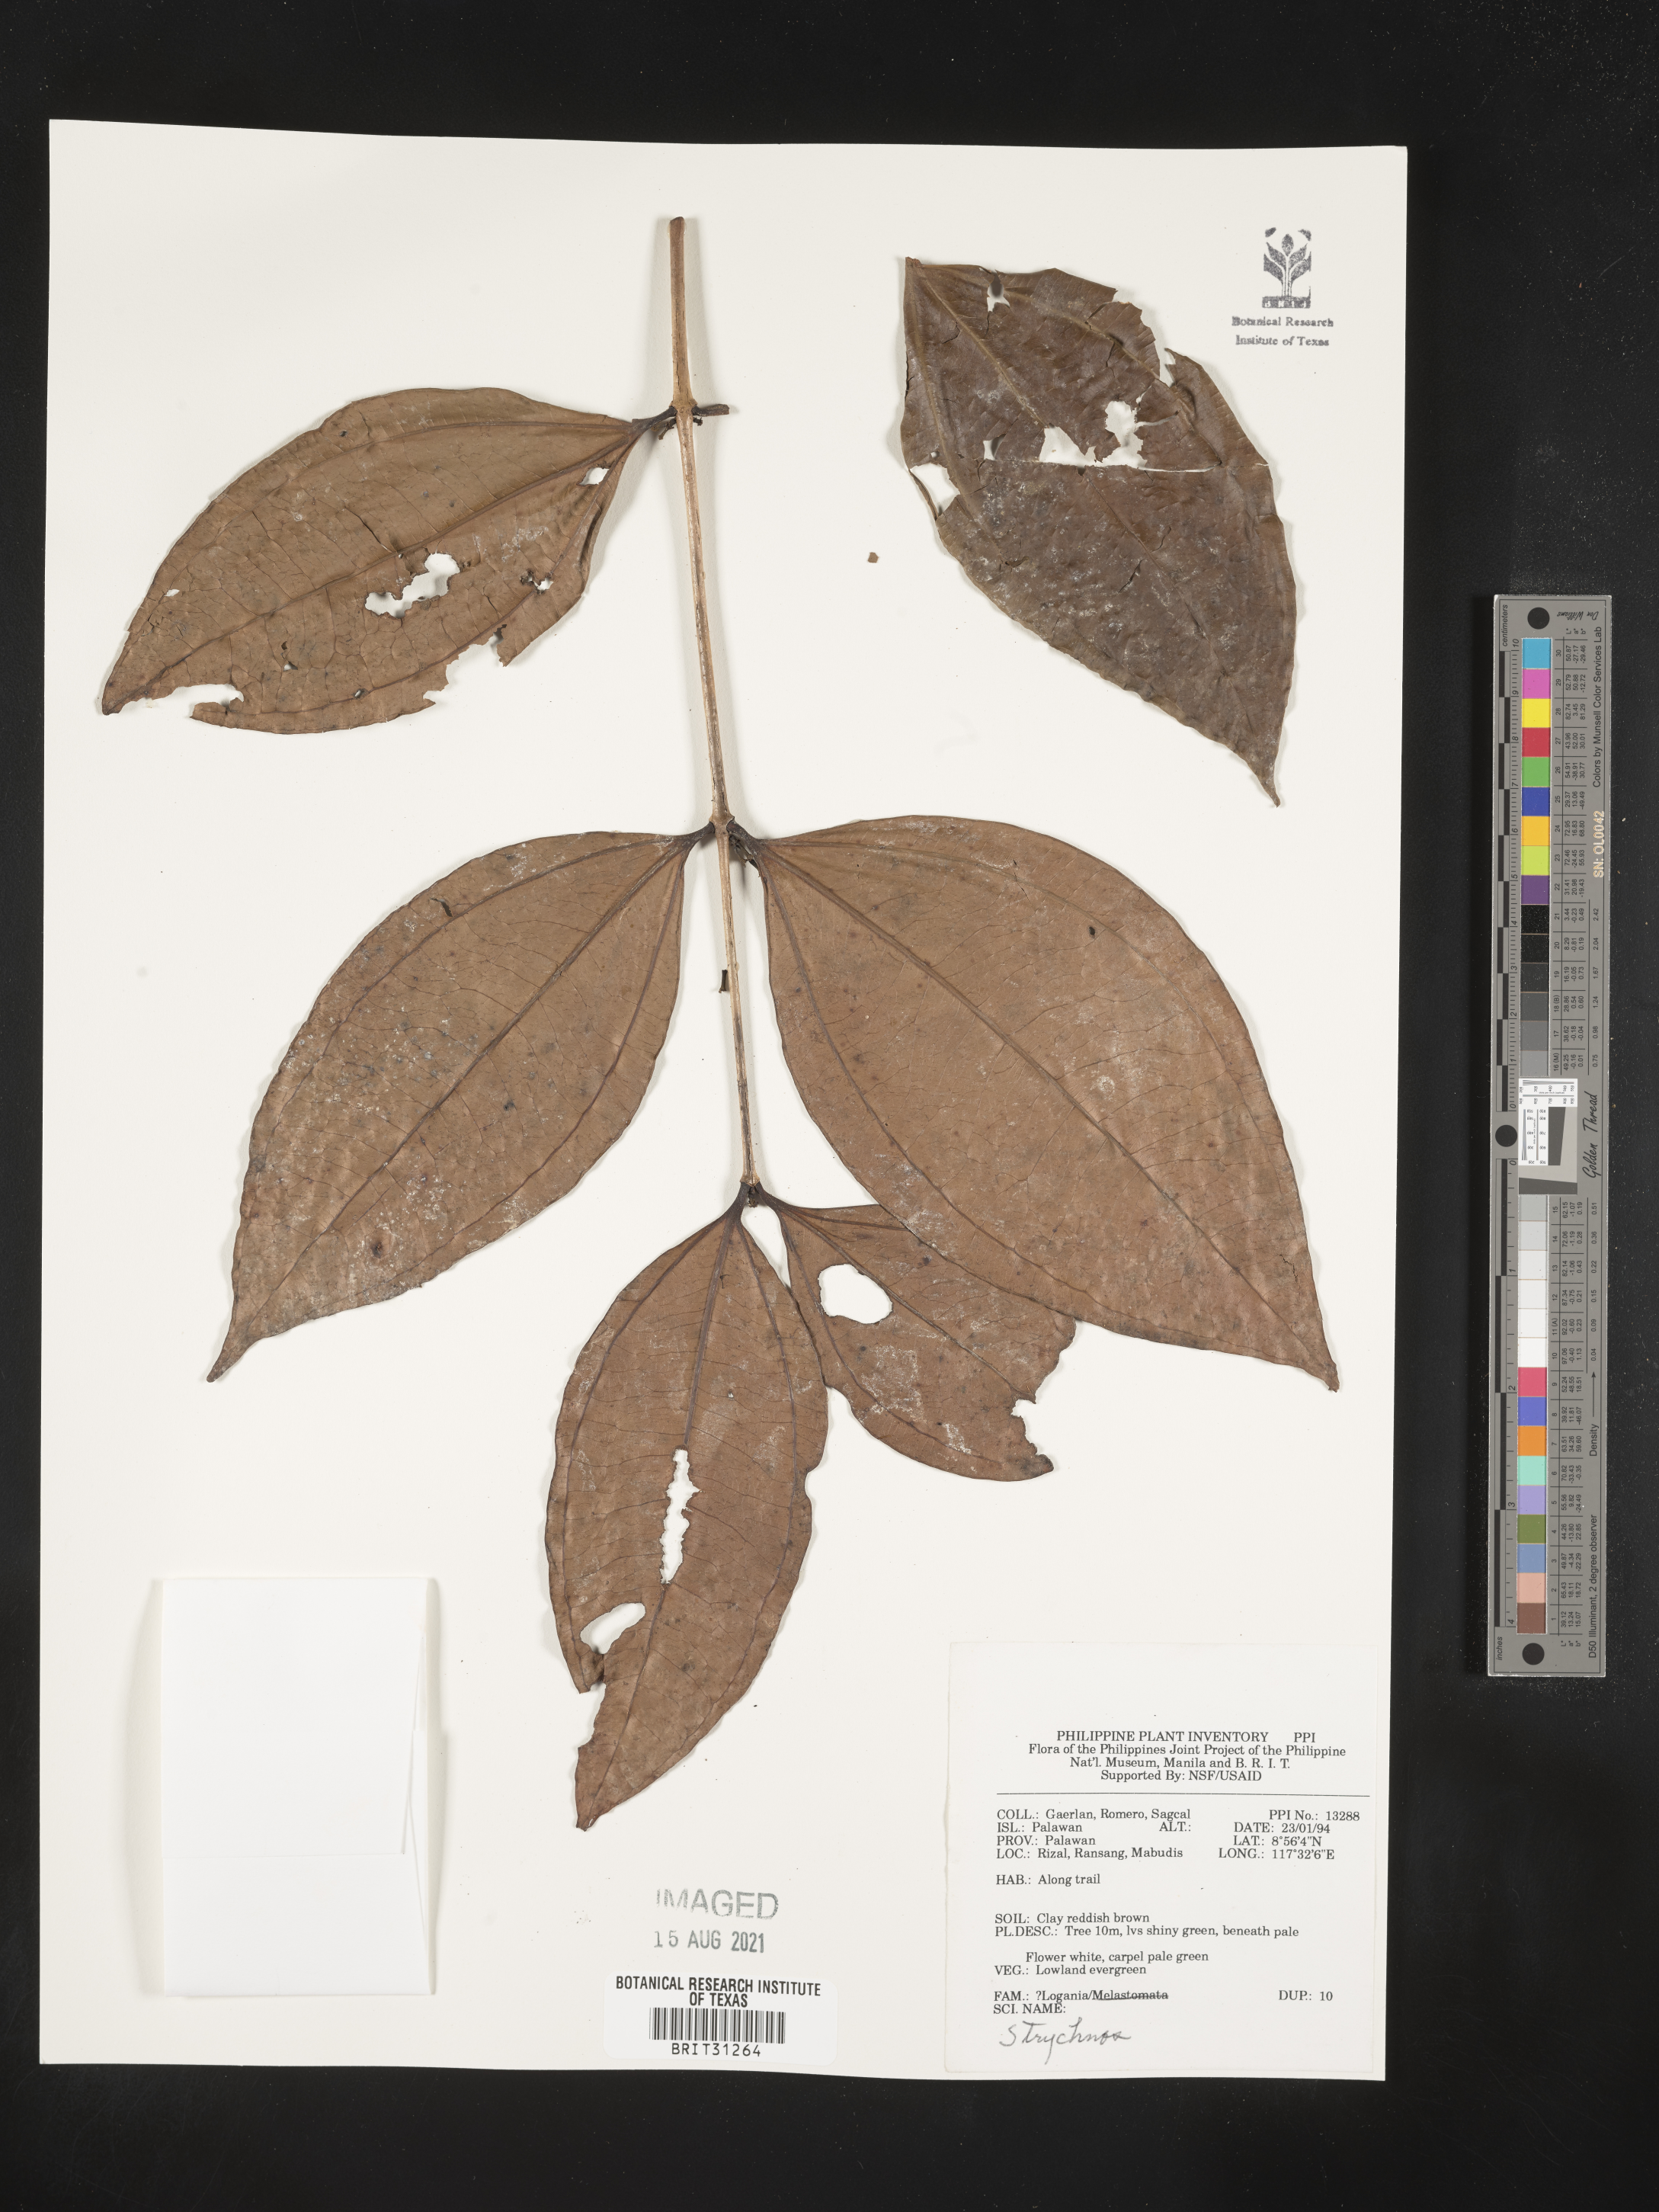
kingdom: Plantae
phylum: Tracheophyta
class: Magnoliopsida
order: Gentianales
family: Loganiaceae
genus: Strychnos
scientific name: Strychnos
